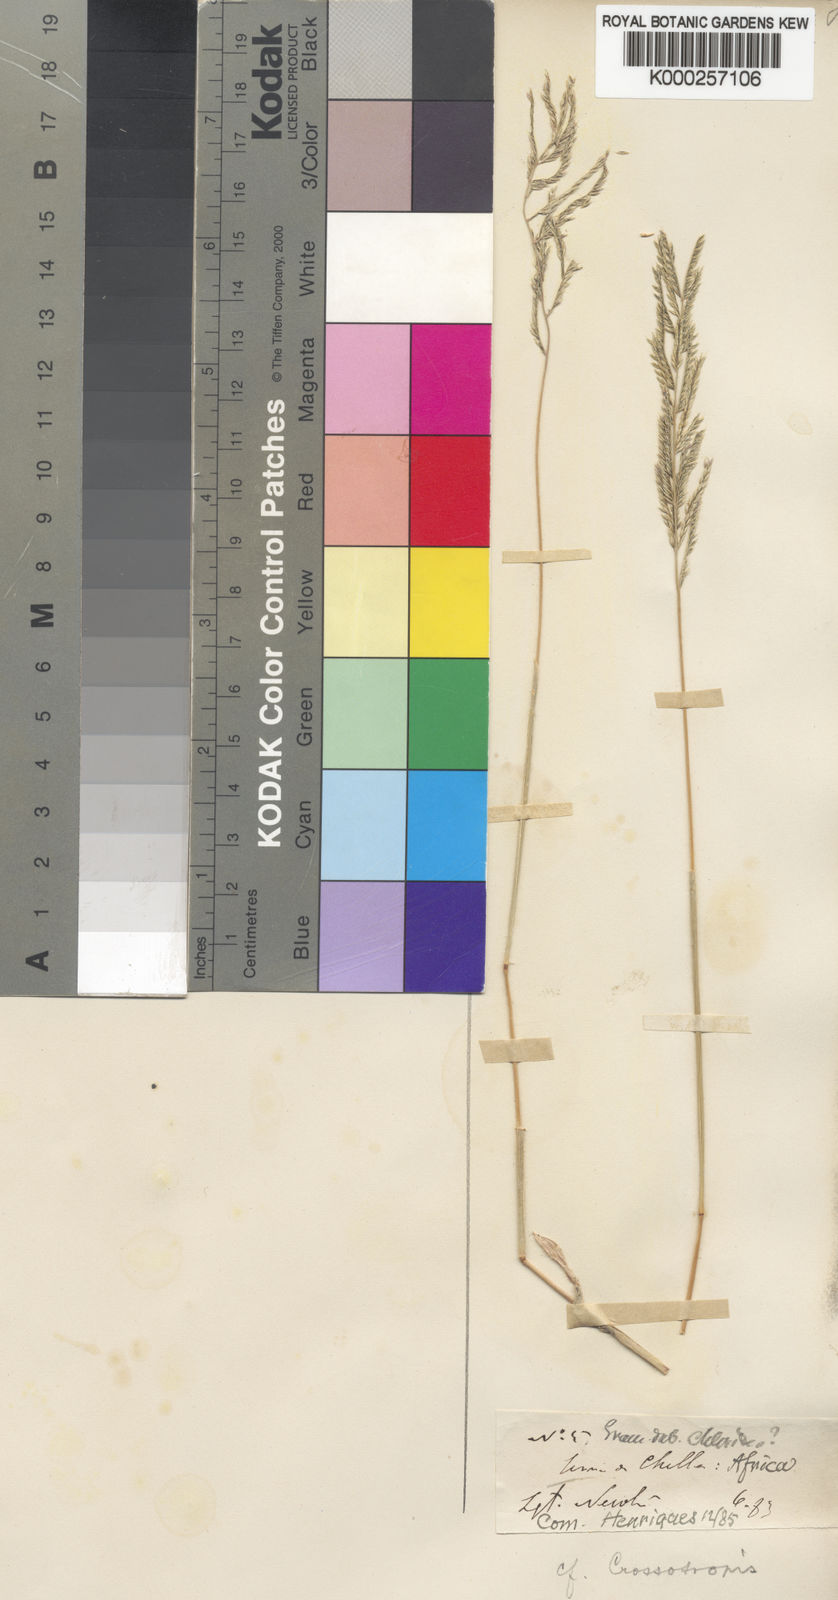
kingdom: Plantae
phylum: Tracheophyta
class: Liliopsida
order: Poales
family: Poaceae
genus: Willkommia
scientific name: Willkommia newtonii
